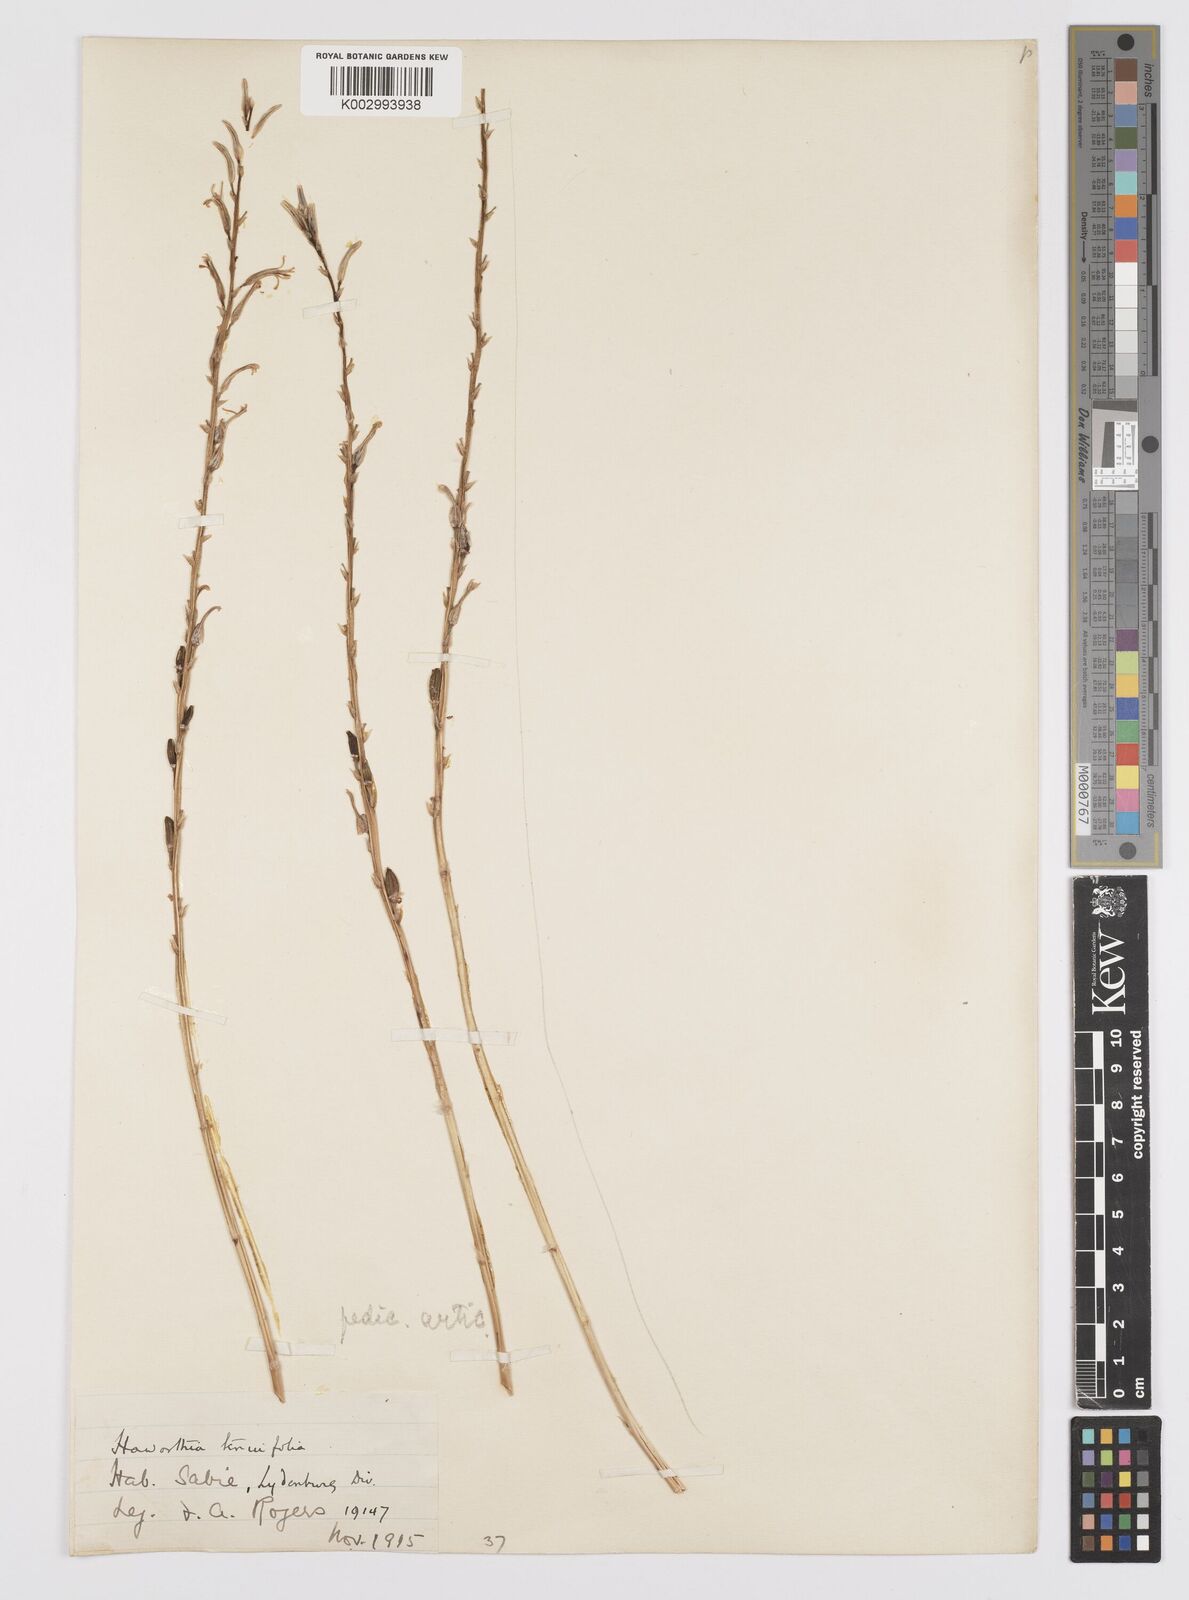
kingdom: Plantae
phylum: Tracheophyta
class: Liliopsida
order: Asparagales
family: Asphodelaceae
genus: Aloe
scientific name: Aloe welwitschii
